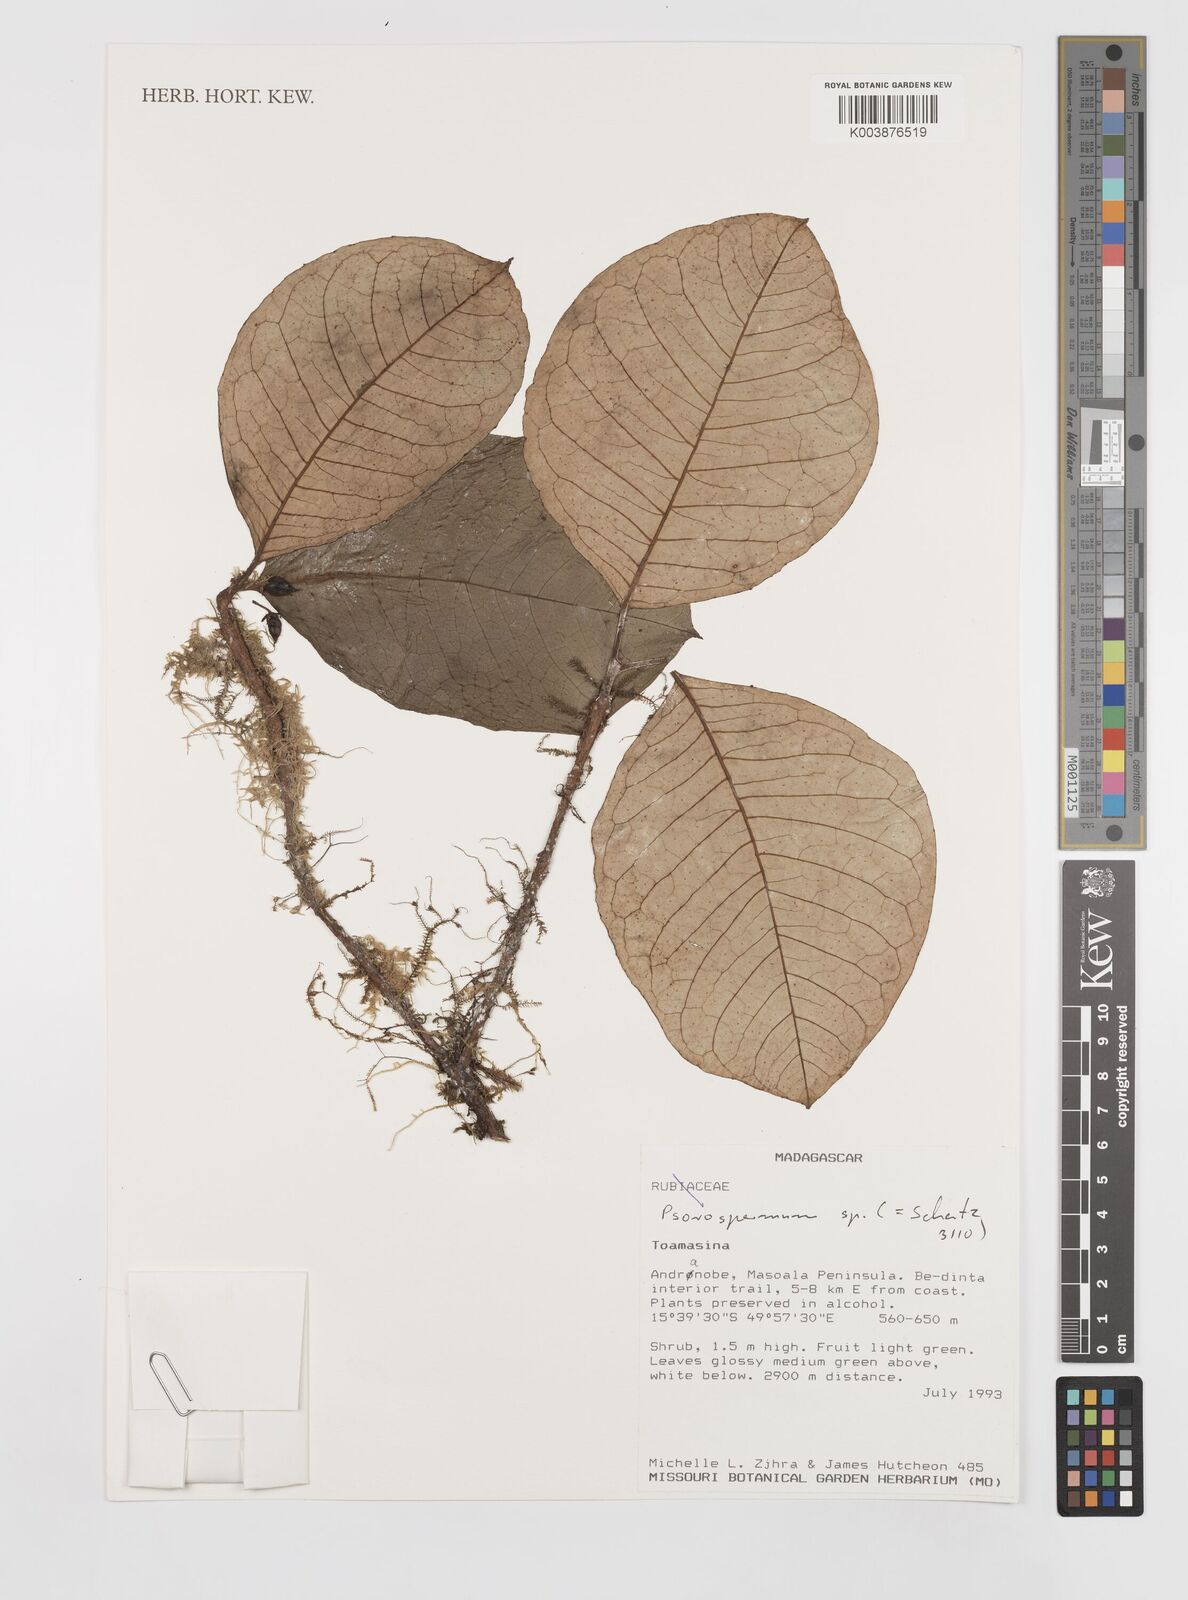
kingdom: Plantae
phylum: Tracheophyta
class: Magnoliopsida
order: Malpighiales
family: Hypericaceae
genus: Psorospermum
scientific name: Psorospermum
